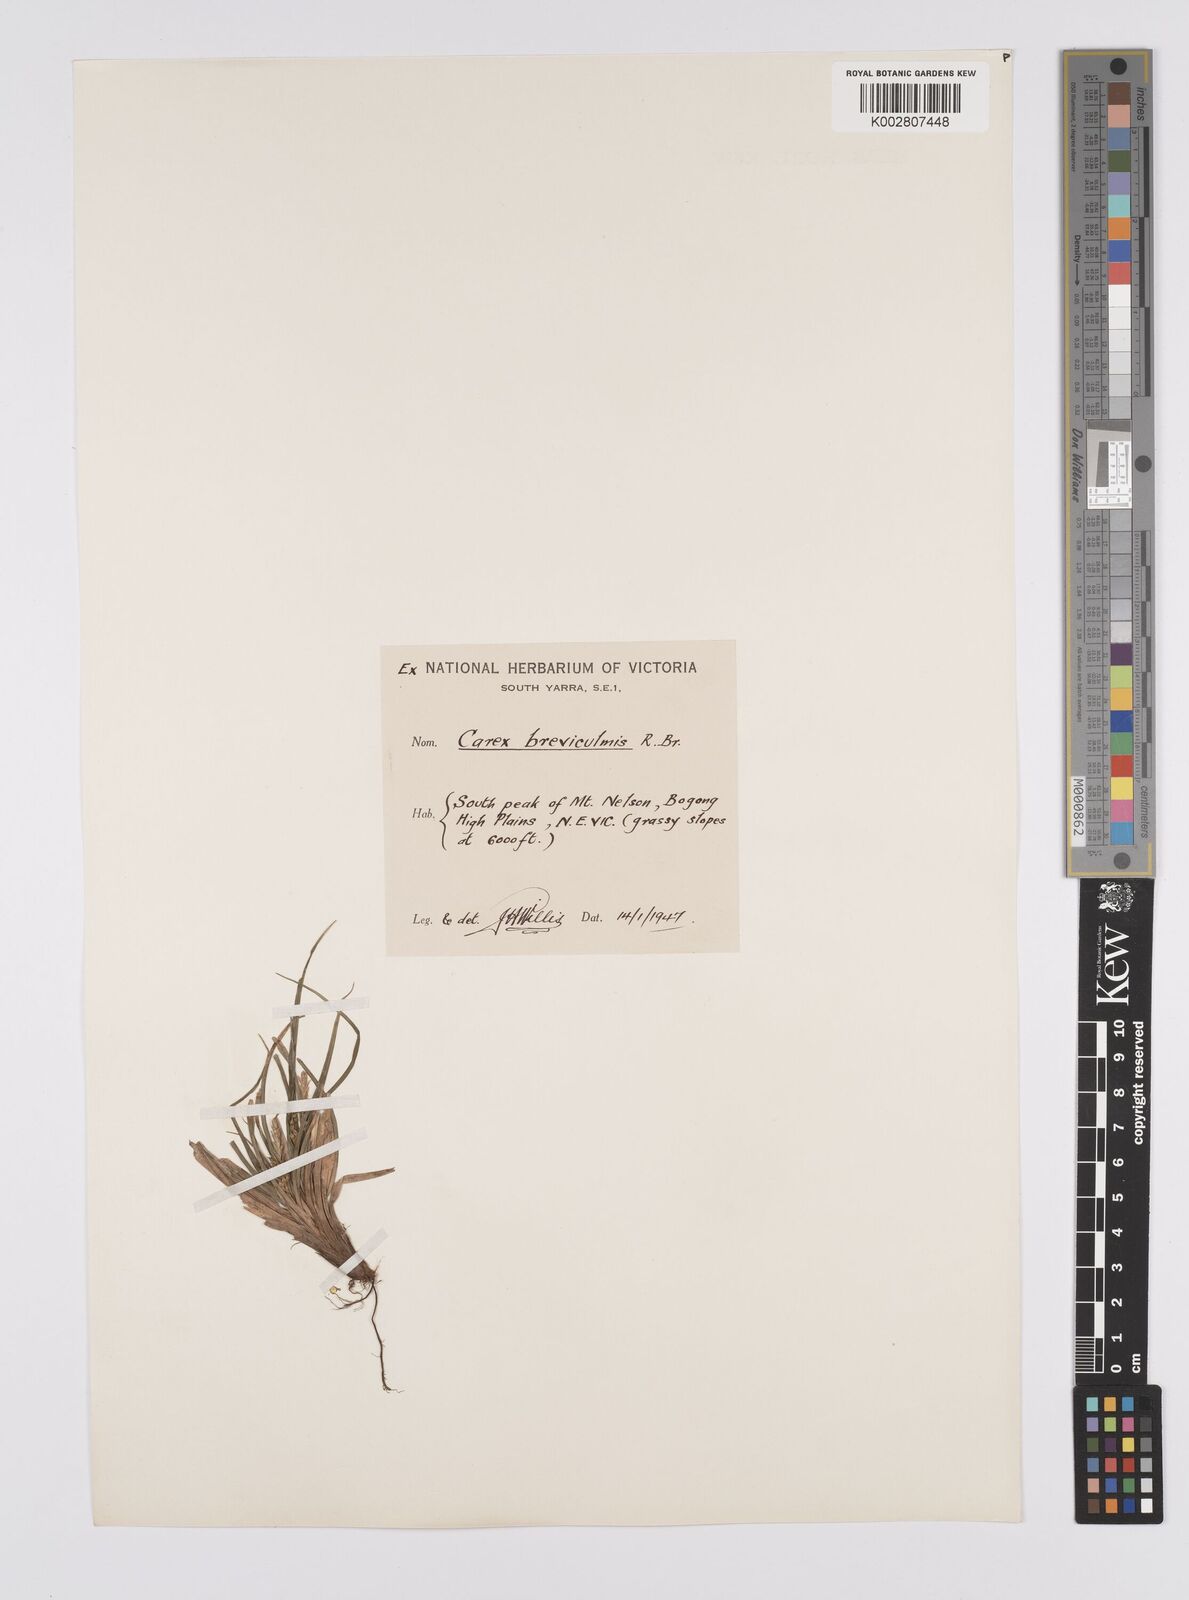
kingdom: Plantae
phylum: Tracheophyta
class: Liliopsida
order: Poales
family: Cyperaceae
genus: Carex
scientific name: Carex breviculmis
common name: Asian shortstem sedge
